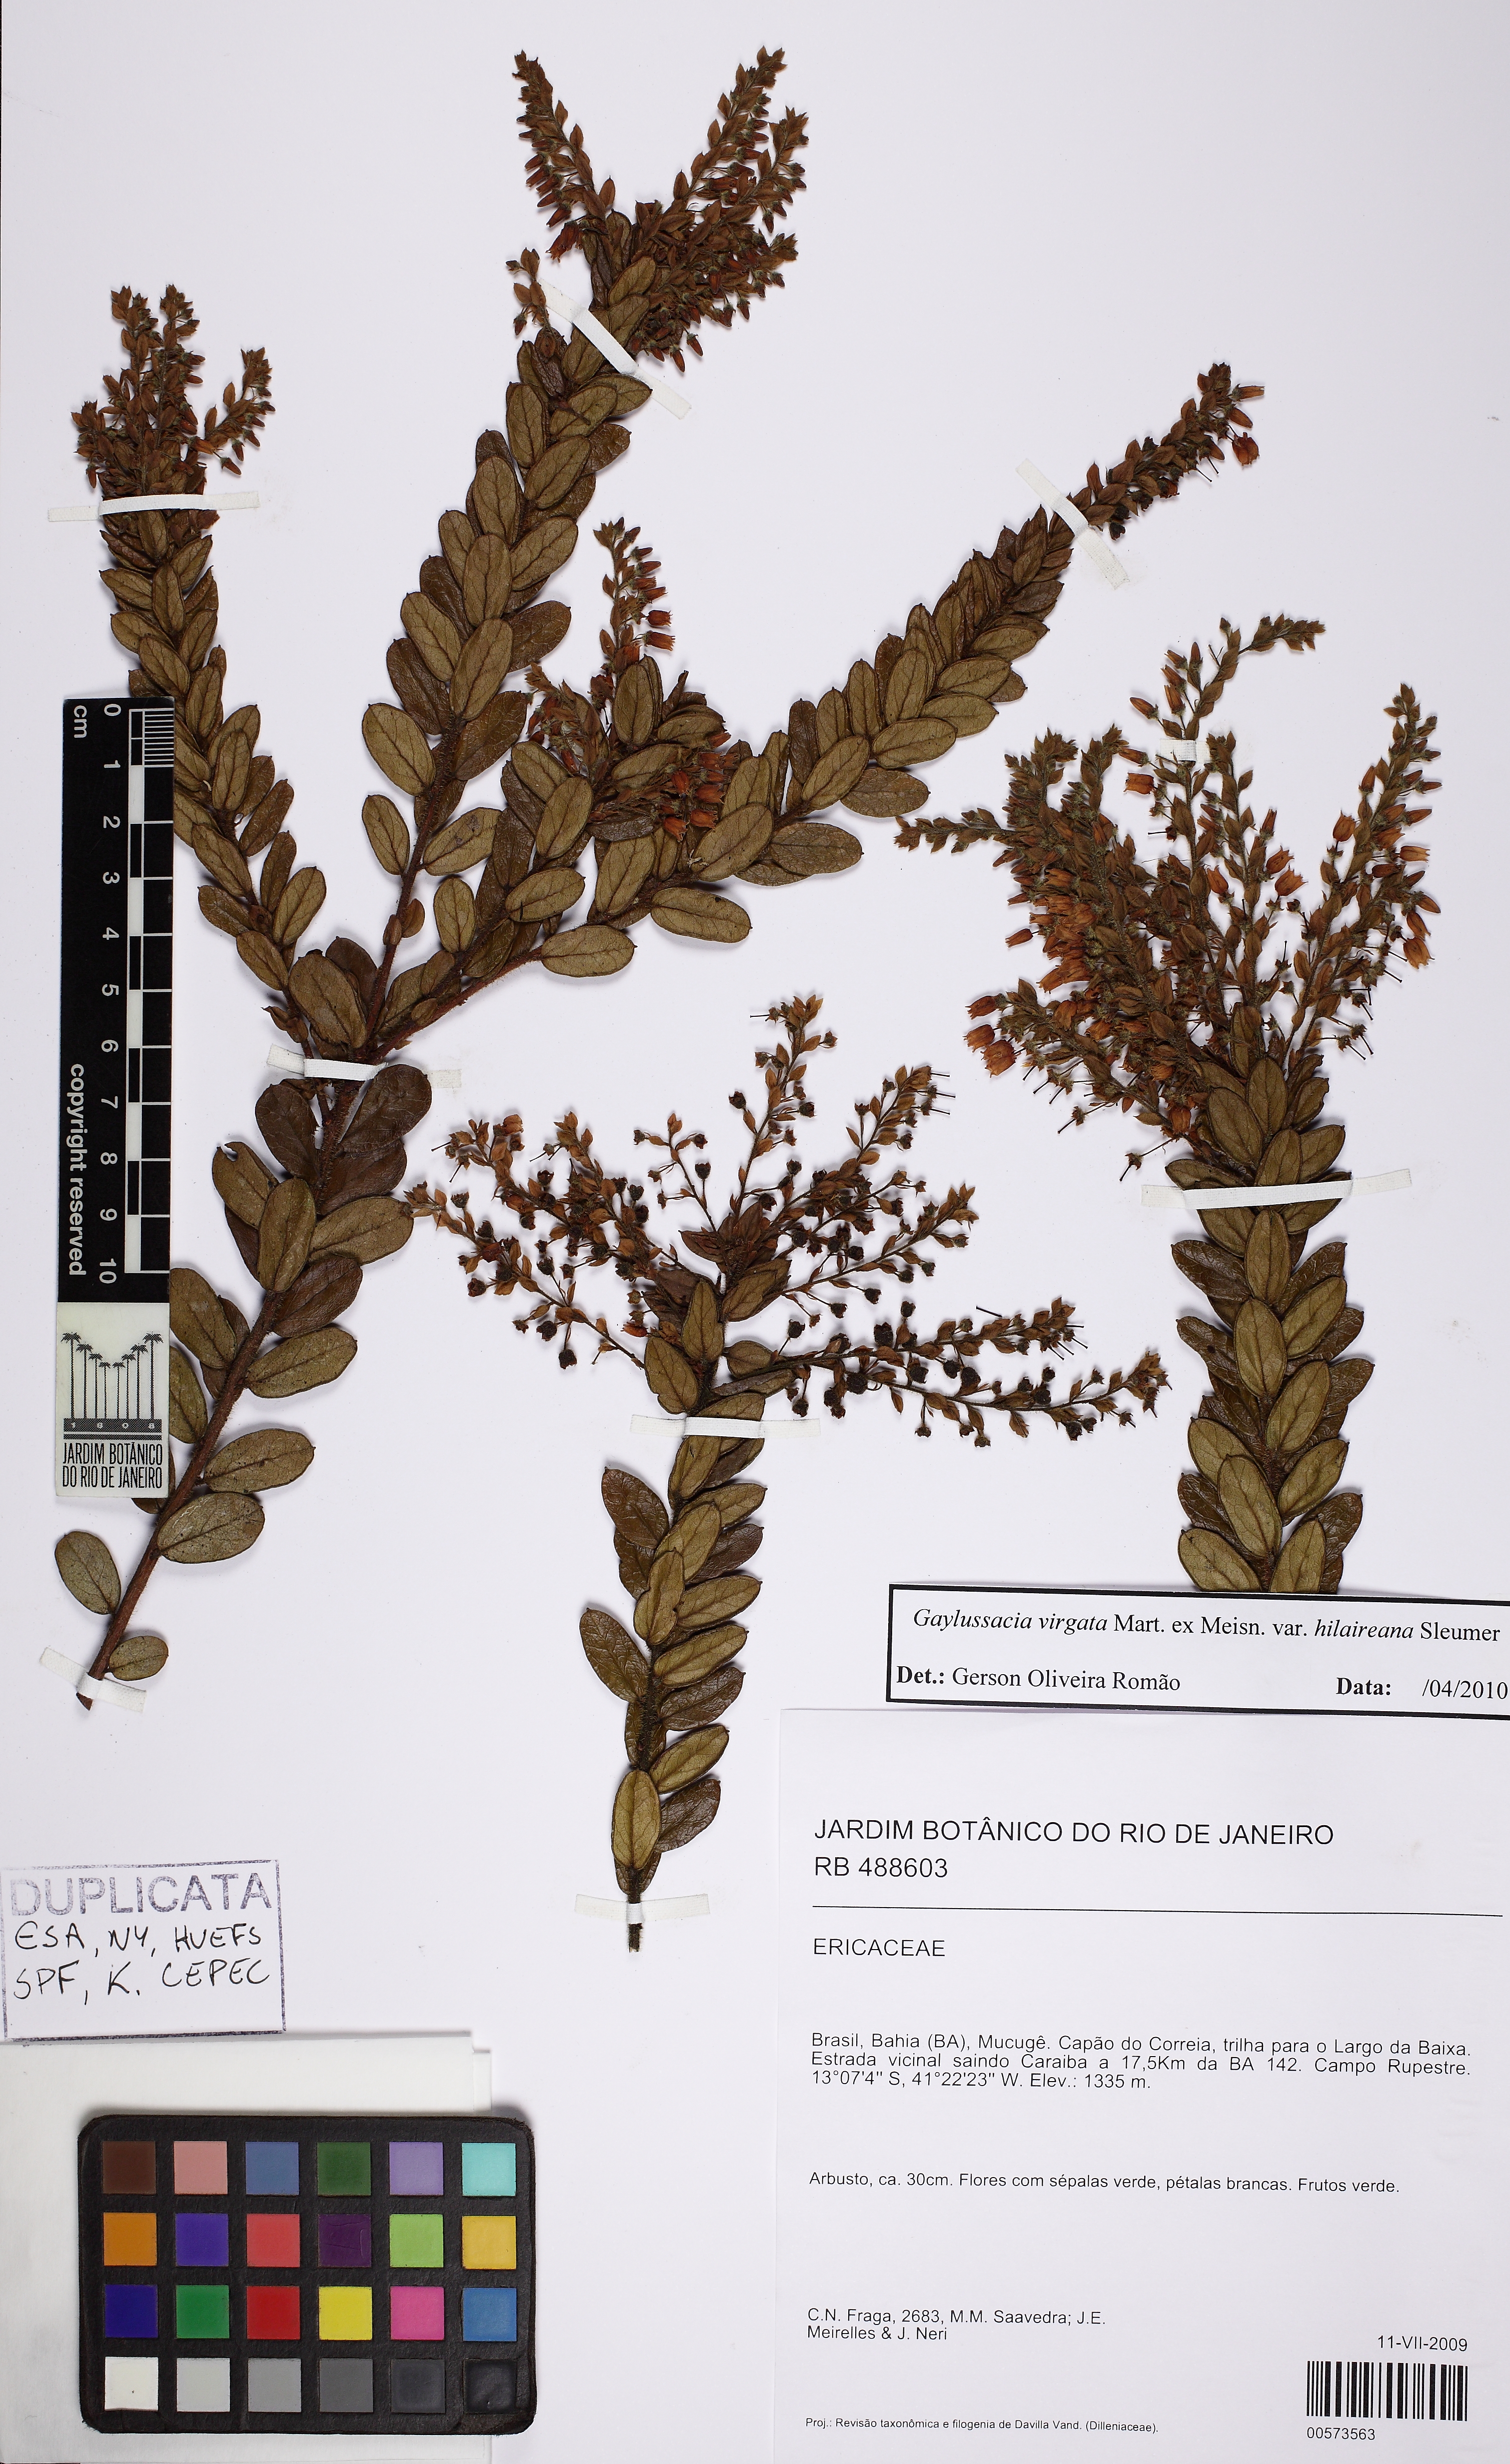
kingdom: Plantae
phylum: Tracheophyta
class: Magnoliopsida
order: Ericales
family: Ericaceae
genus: Gaylussacia
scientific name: Gaylussacia virgata
